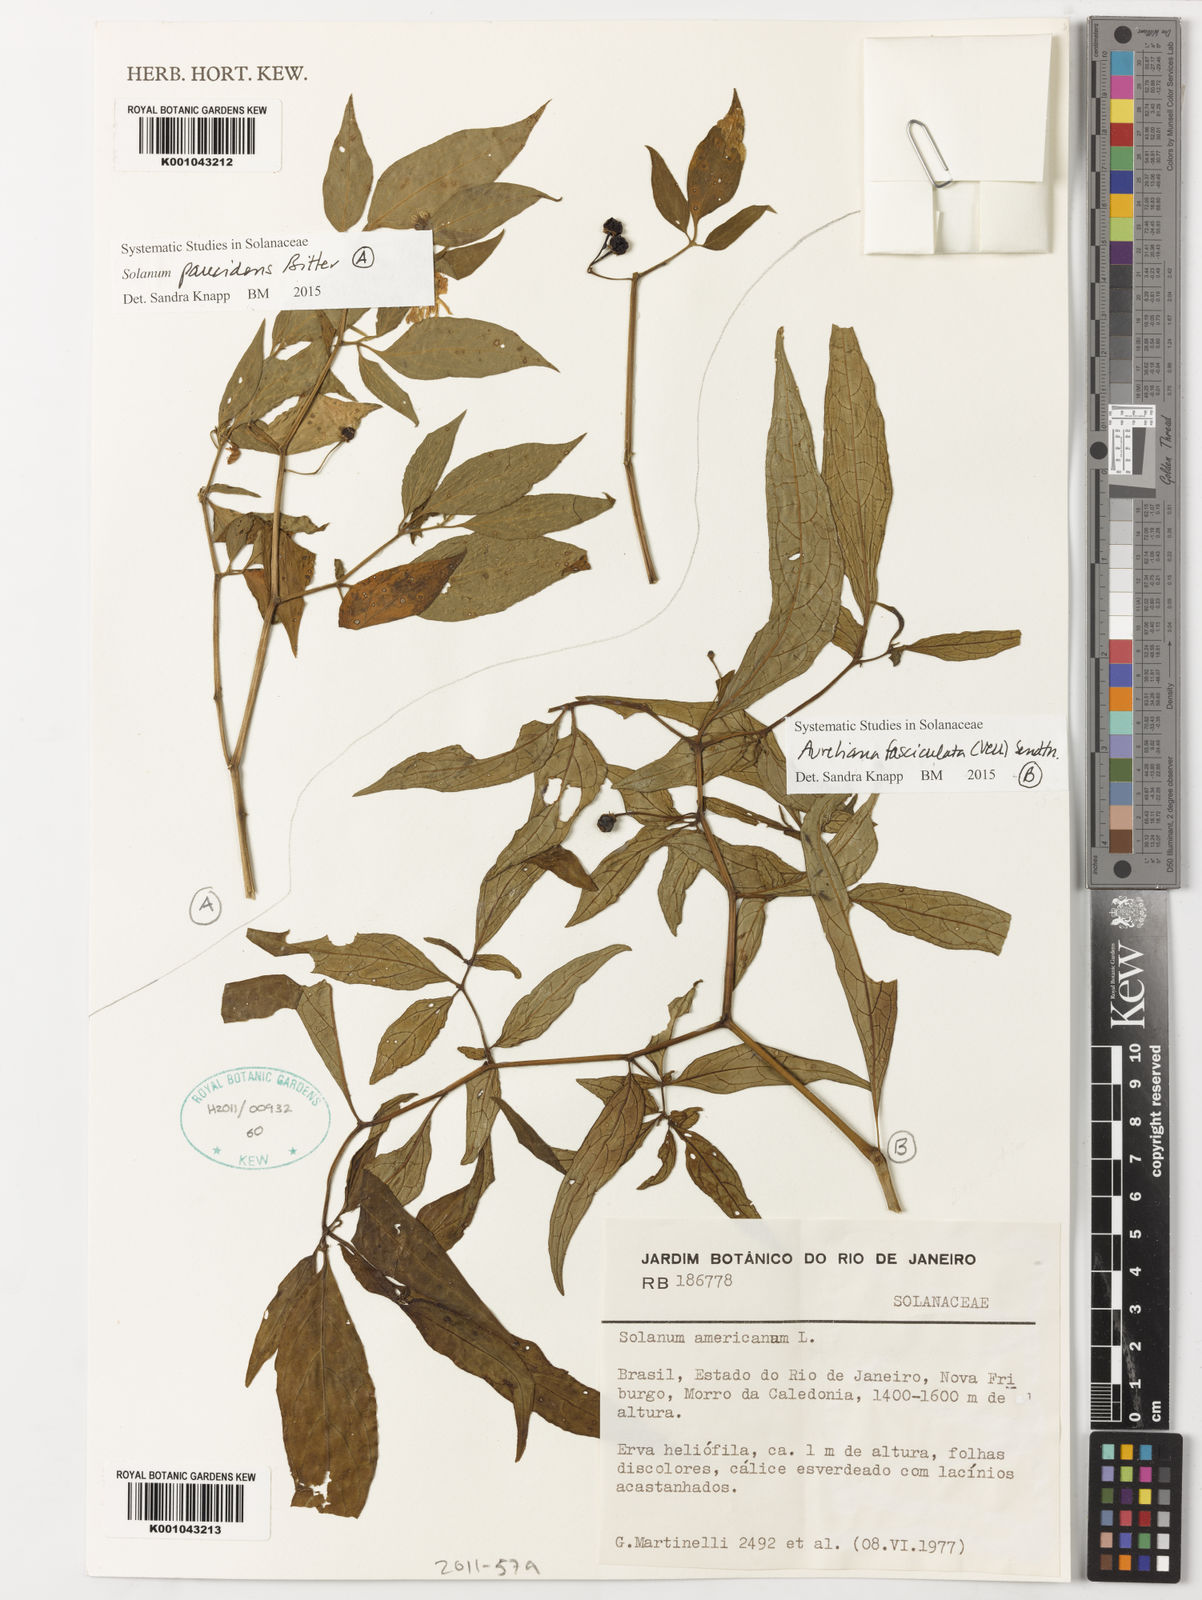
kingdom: Plantae
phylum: Tracheophyta
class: Magnoliopsida
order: Solanales
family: Solanaceae
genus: Athenaea
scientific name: Athenaea fasciculata
